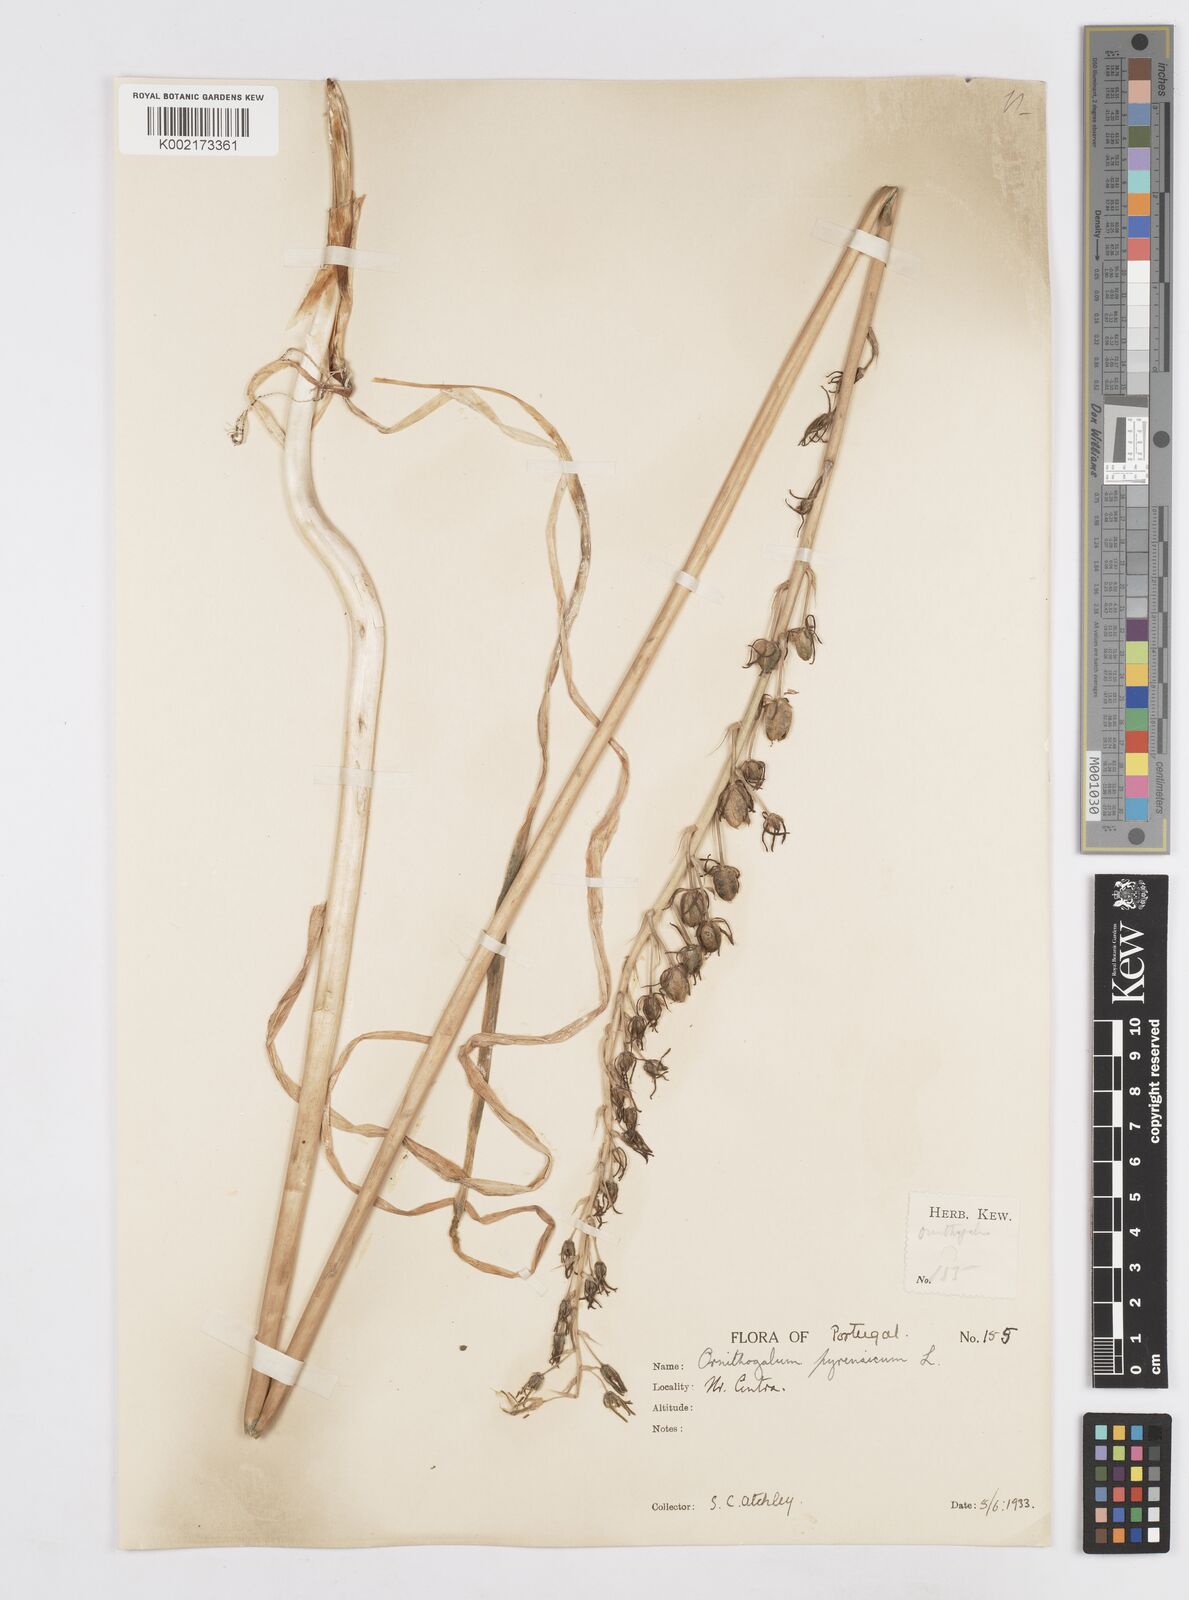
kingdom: Plantae
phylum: Tracheophyta
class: Liliopsida
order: Asparagales
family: Asparagaceae
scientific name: Asparagaceae
